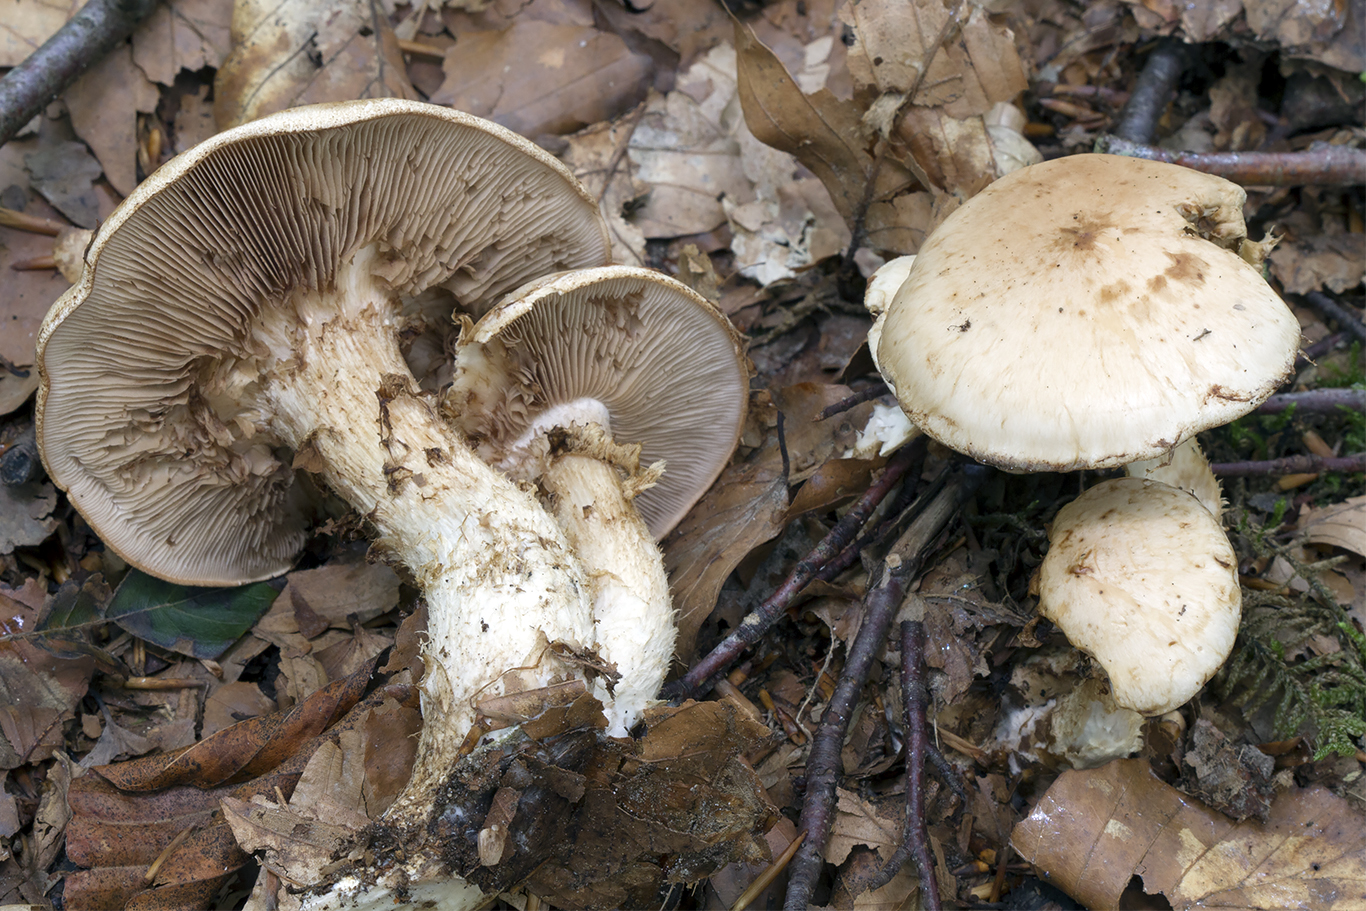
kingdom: Fungi
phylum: Basidiomycota
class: Agaricomycetes
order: Agaricales
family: Hymenogastraceae
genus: Hebeloma
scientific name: Hebeloma radicosum
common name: pælerods-tåreblad
